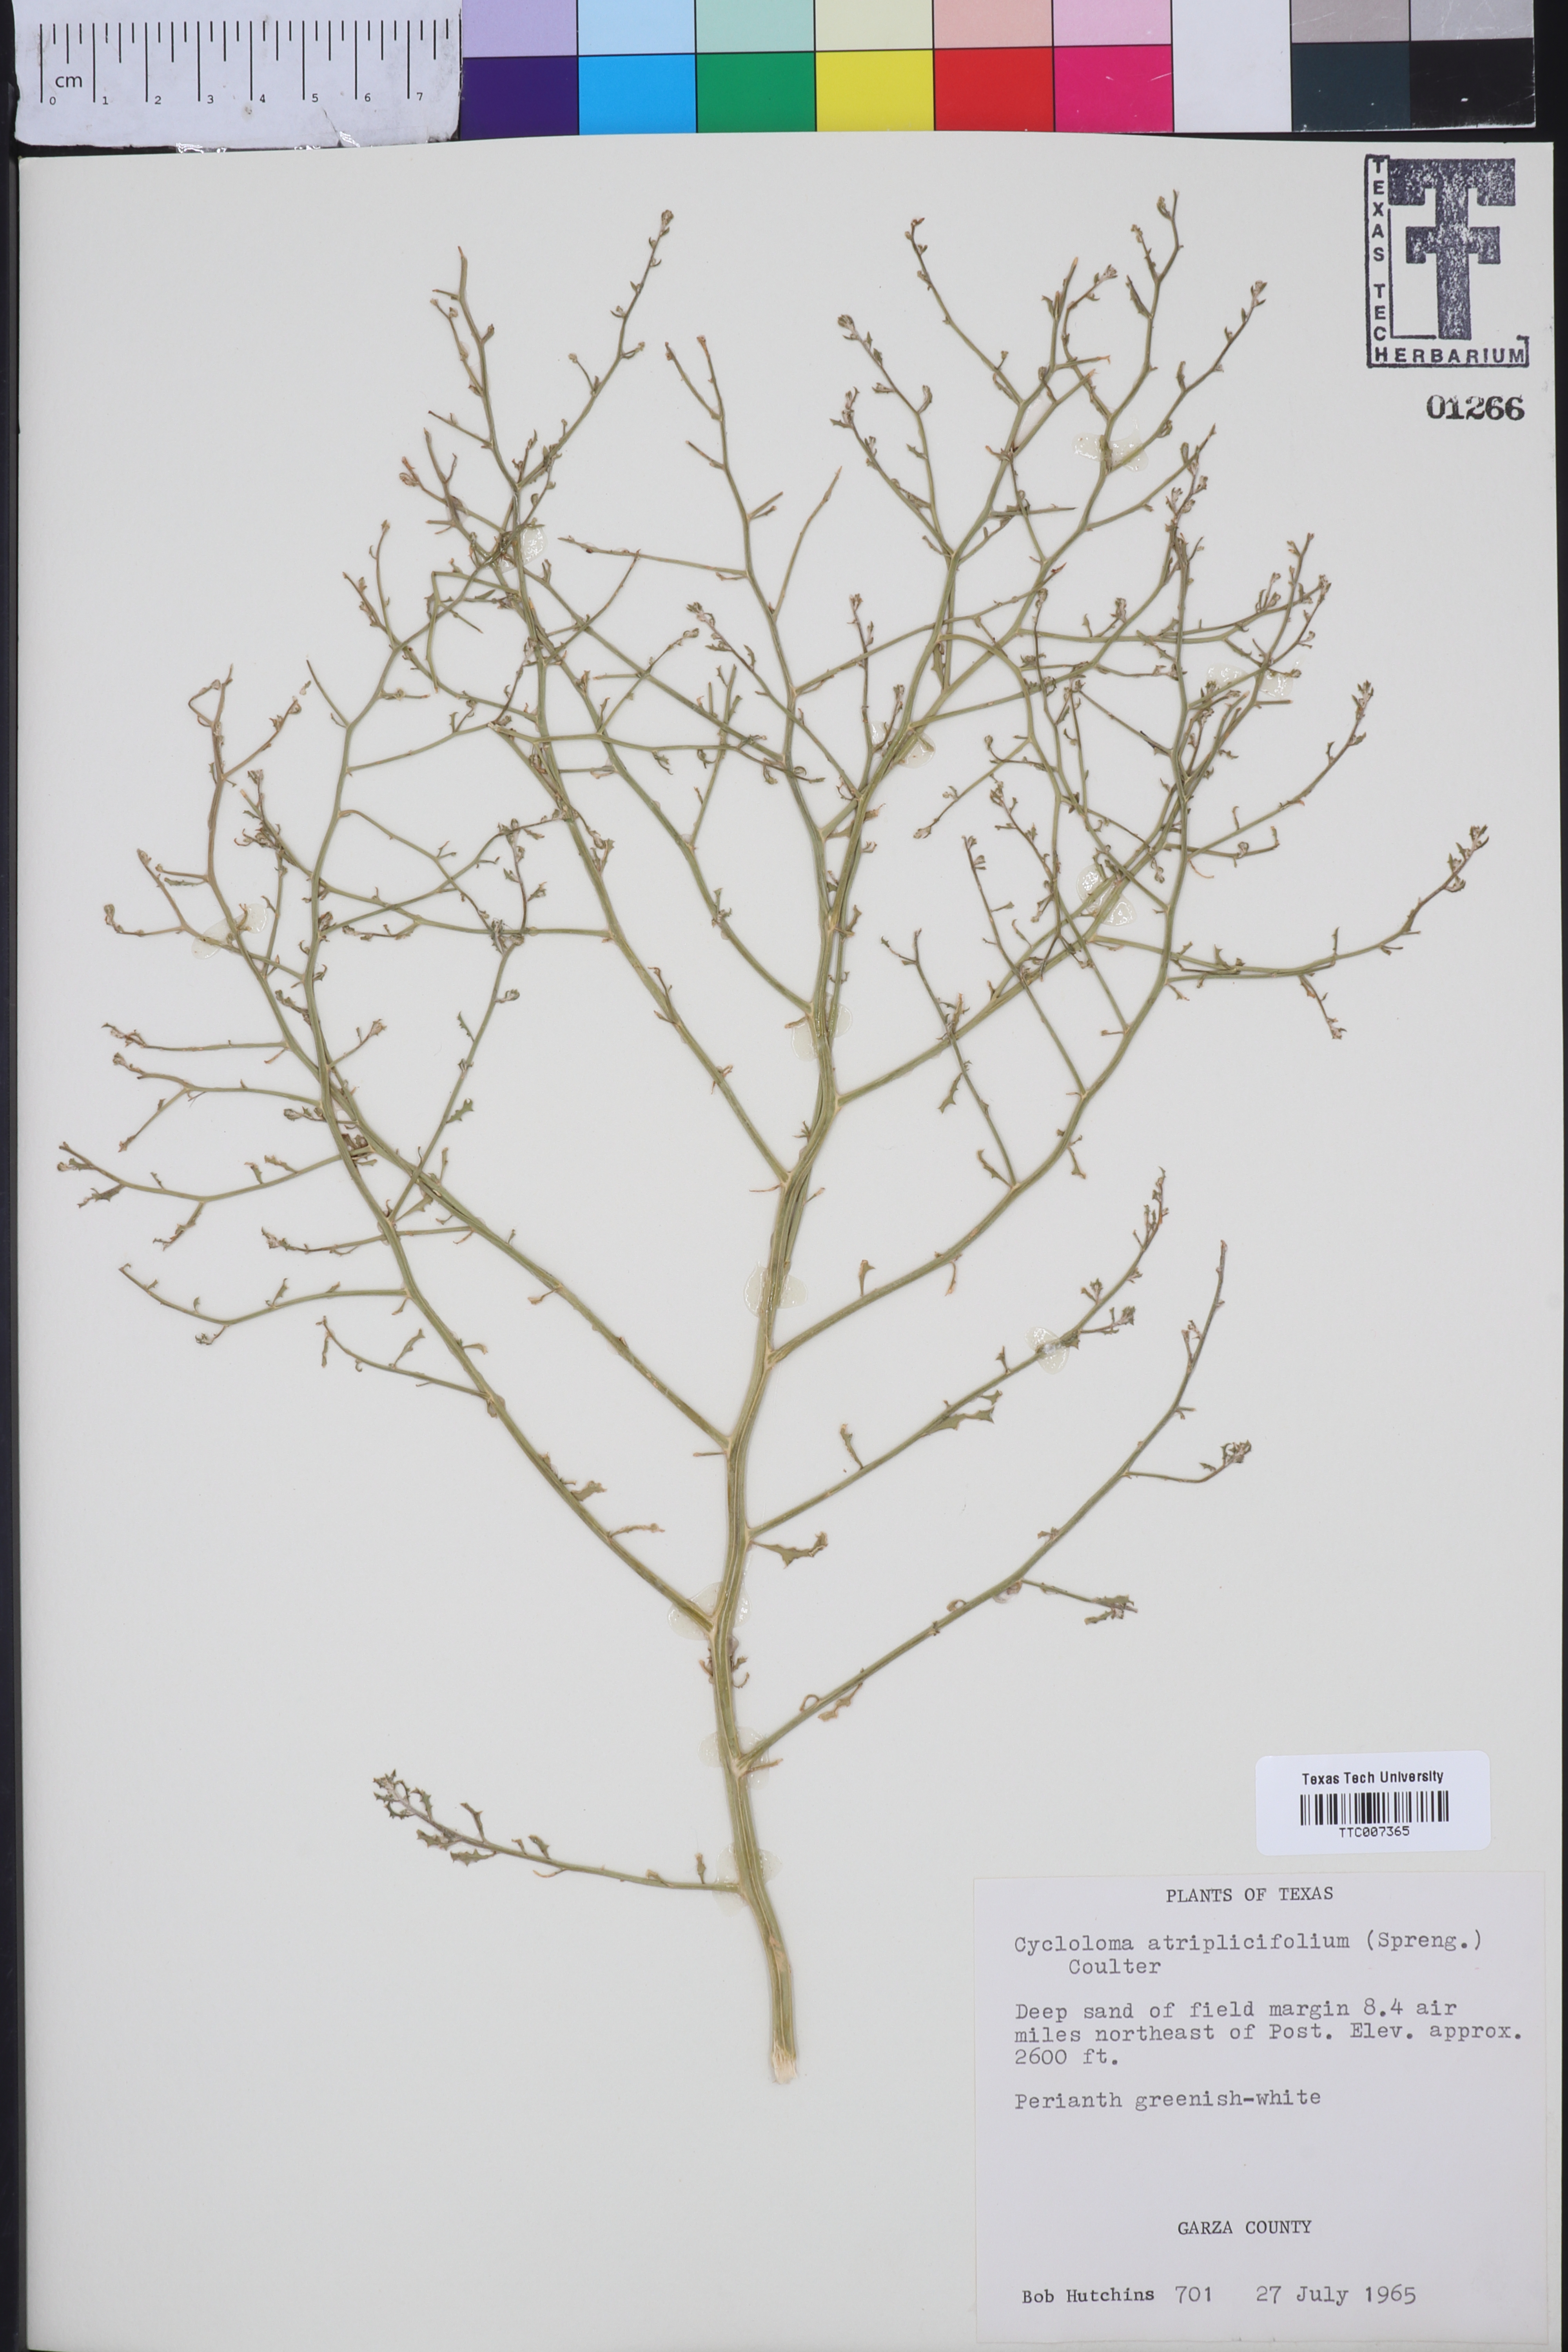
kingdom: Plantae
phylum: Tracheophyta
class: Magnoliopsida
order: Caryophyllales
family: Amaranthaceae
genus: Dysphania
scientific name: Dysphania atriplicifolia
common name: Plains tumbleweed
